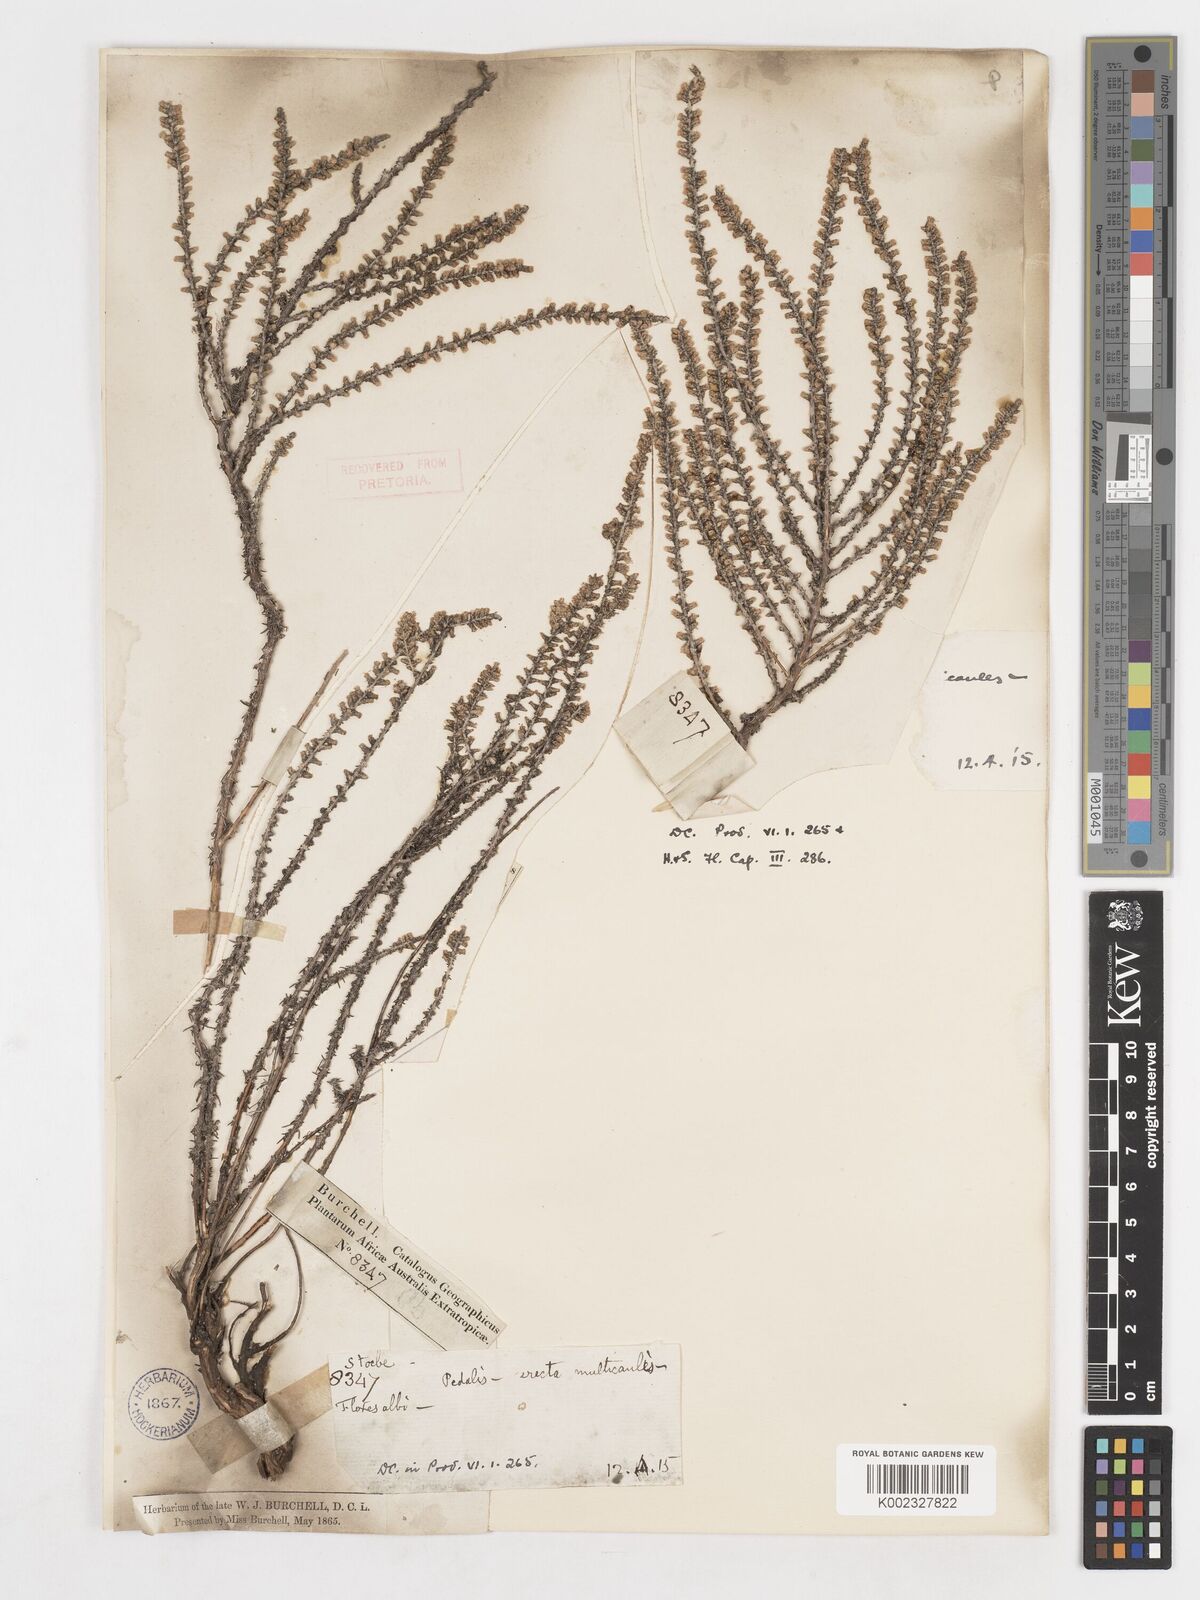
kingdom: Plantae
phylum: Tracheophyta
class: Magnoliopsida
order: Asterales
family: Asteraceae
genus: Ifloga
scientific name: Ifloga ambigua
